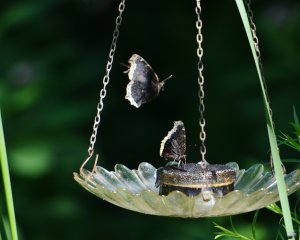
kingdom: Animalia
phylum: Arthropoda
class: Insecta
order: Lepidoptera
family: Nymphalidae
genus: Nymphalis
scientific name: Nymphalis antiopa
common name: Mourning Cloak
